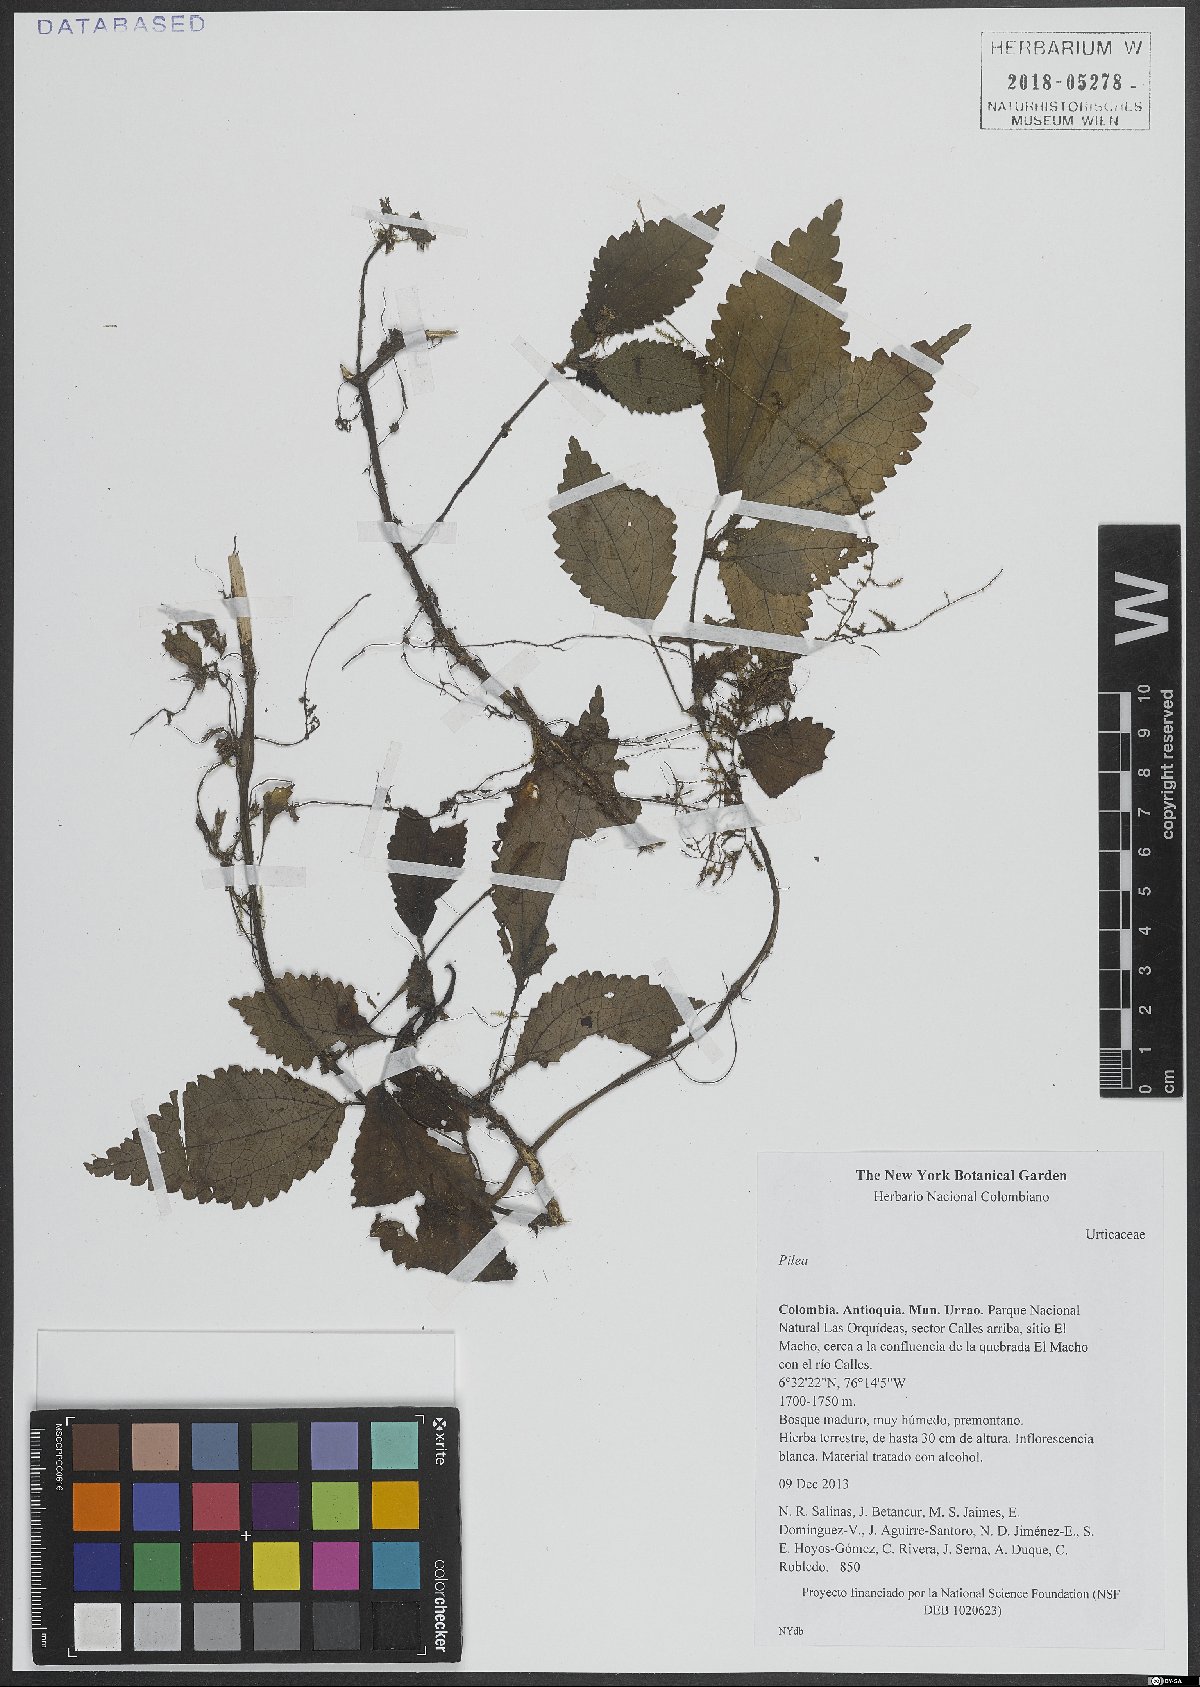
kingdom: Plantae
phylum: Tracheophyta
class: Magnoliopsida
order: Rosales
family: Urticaceae
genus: Pilea
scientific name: Pilea
